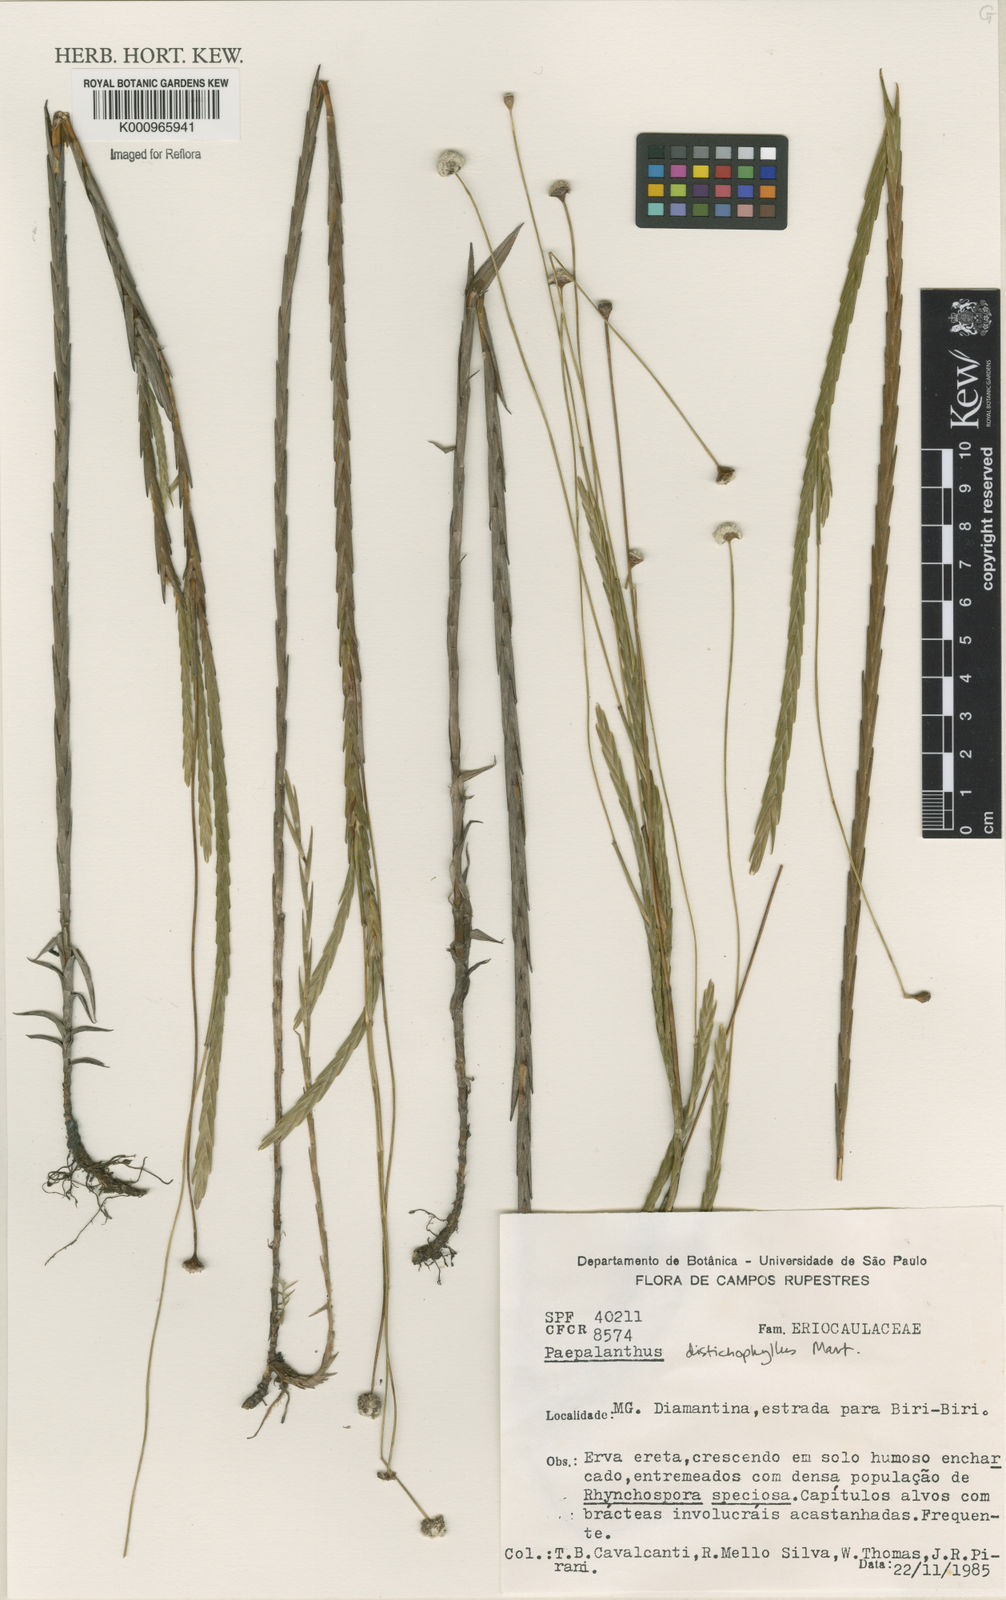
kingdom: Plantae
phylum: Tracheophyta
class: Liliopsida
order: Poales
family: Eriocaulaceae
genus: Paepalanthus
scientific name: Paepalanthus distichophyllus
